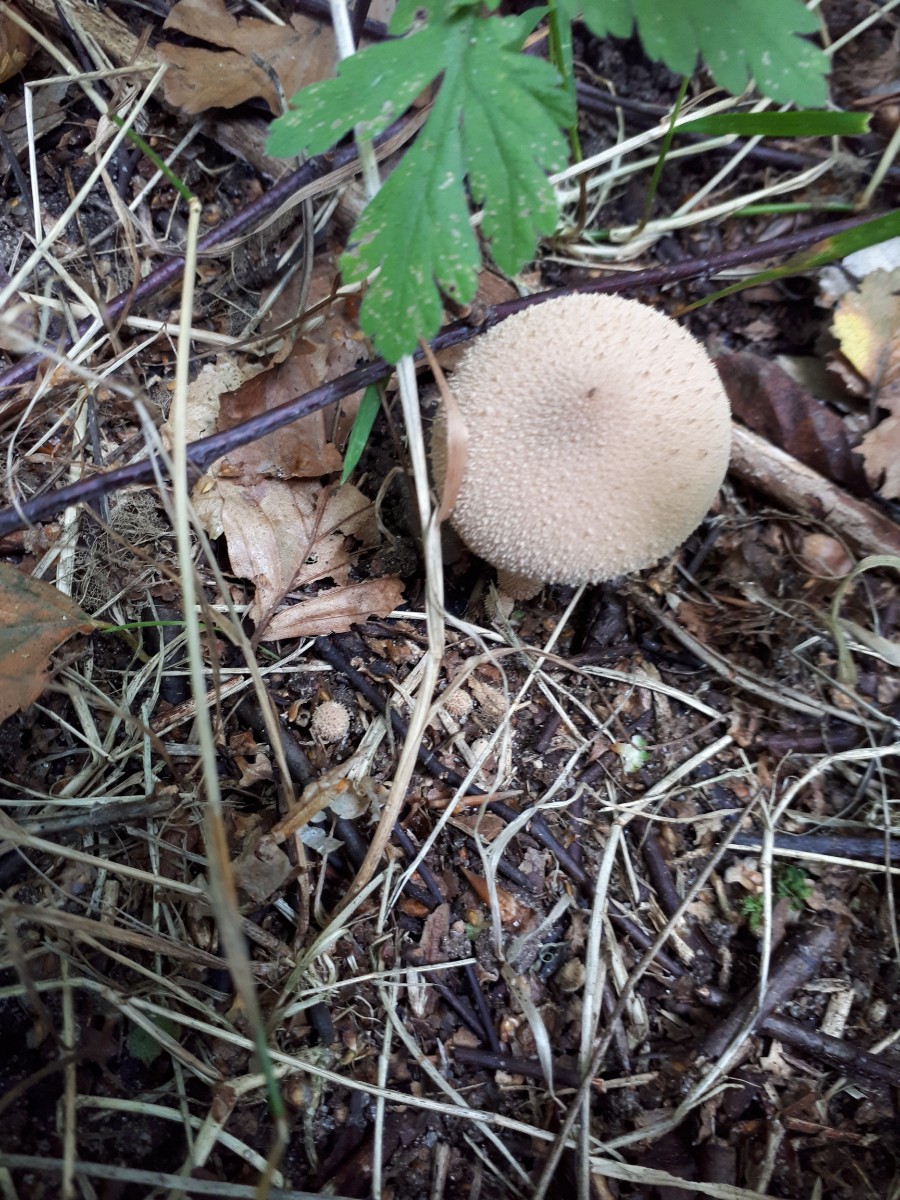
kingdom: Fungi
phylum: Basidiomycota
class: Agaricomycetes
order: Agaricales
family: Lycoperdaceae
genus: Lycoperdon
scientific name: Lycoperdon perlatum
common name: krystal-støvbold
